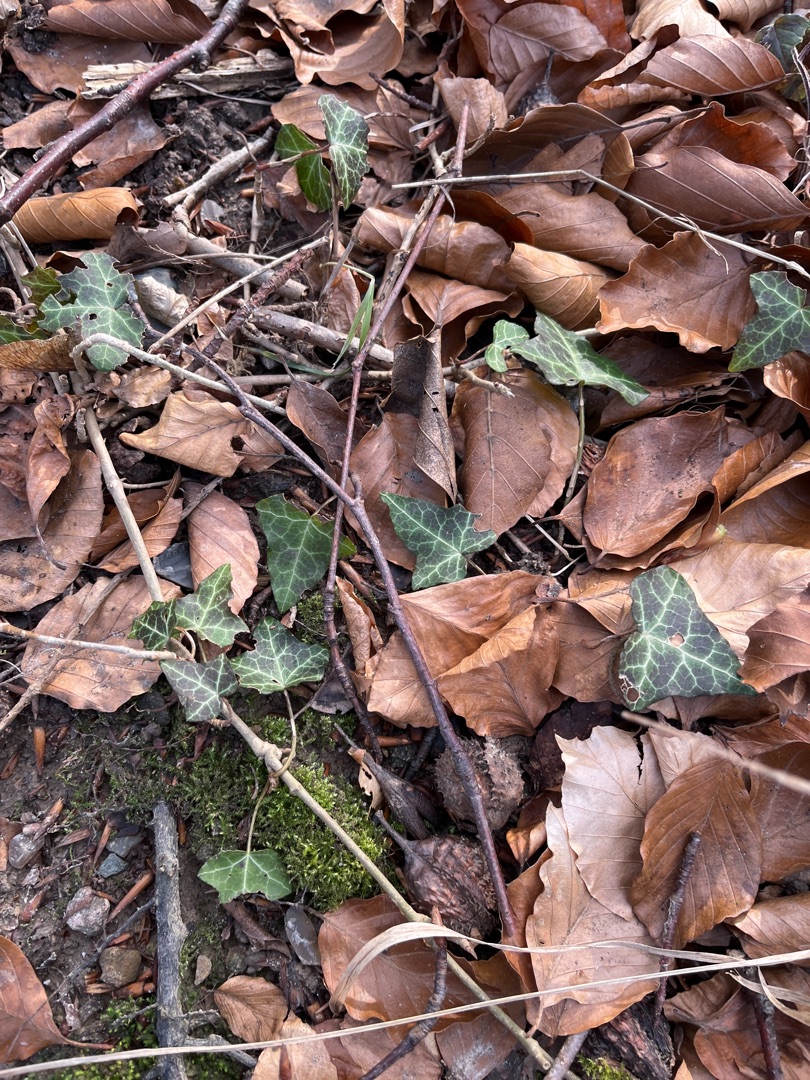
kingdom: Plantae
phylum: Tracheophyta
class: Magnoliopsida
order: Apiales
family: Araliaceae
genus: Hedera
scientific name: Hedera helix
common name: Vedbend
